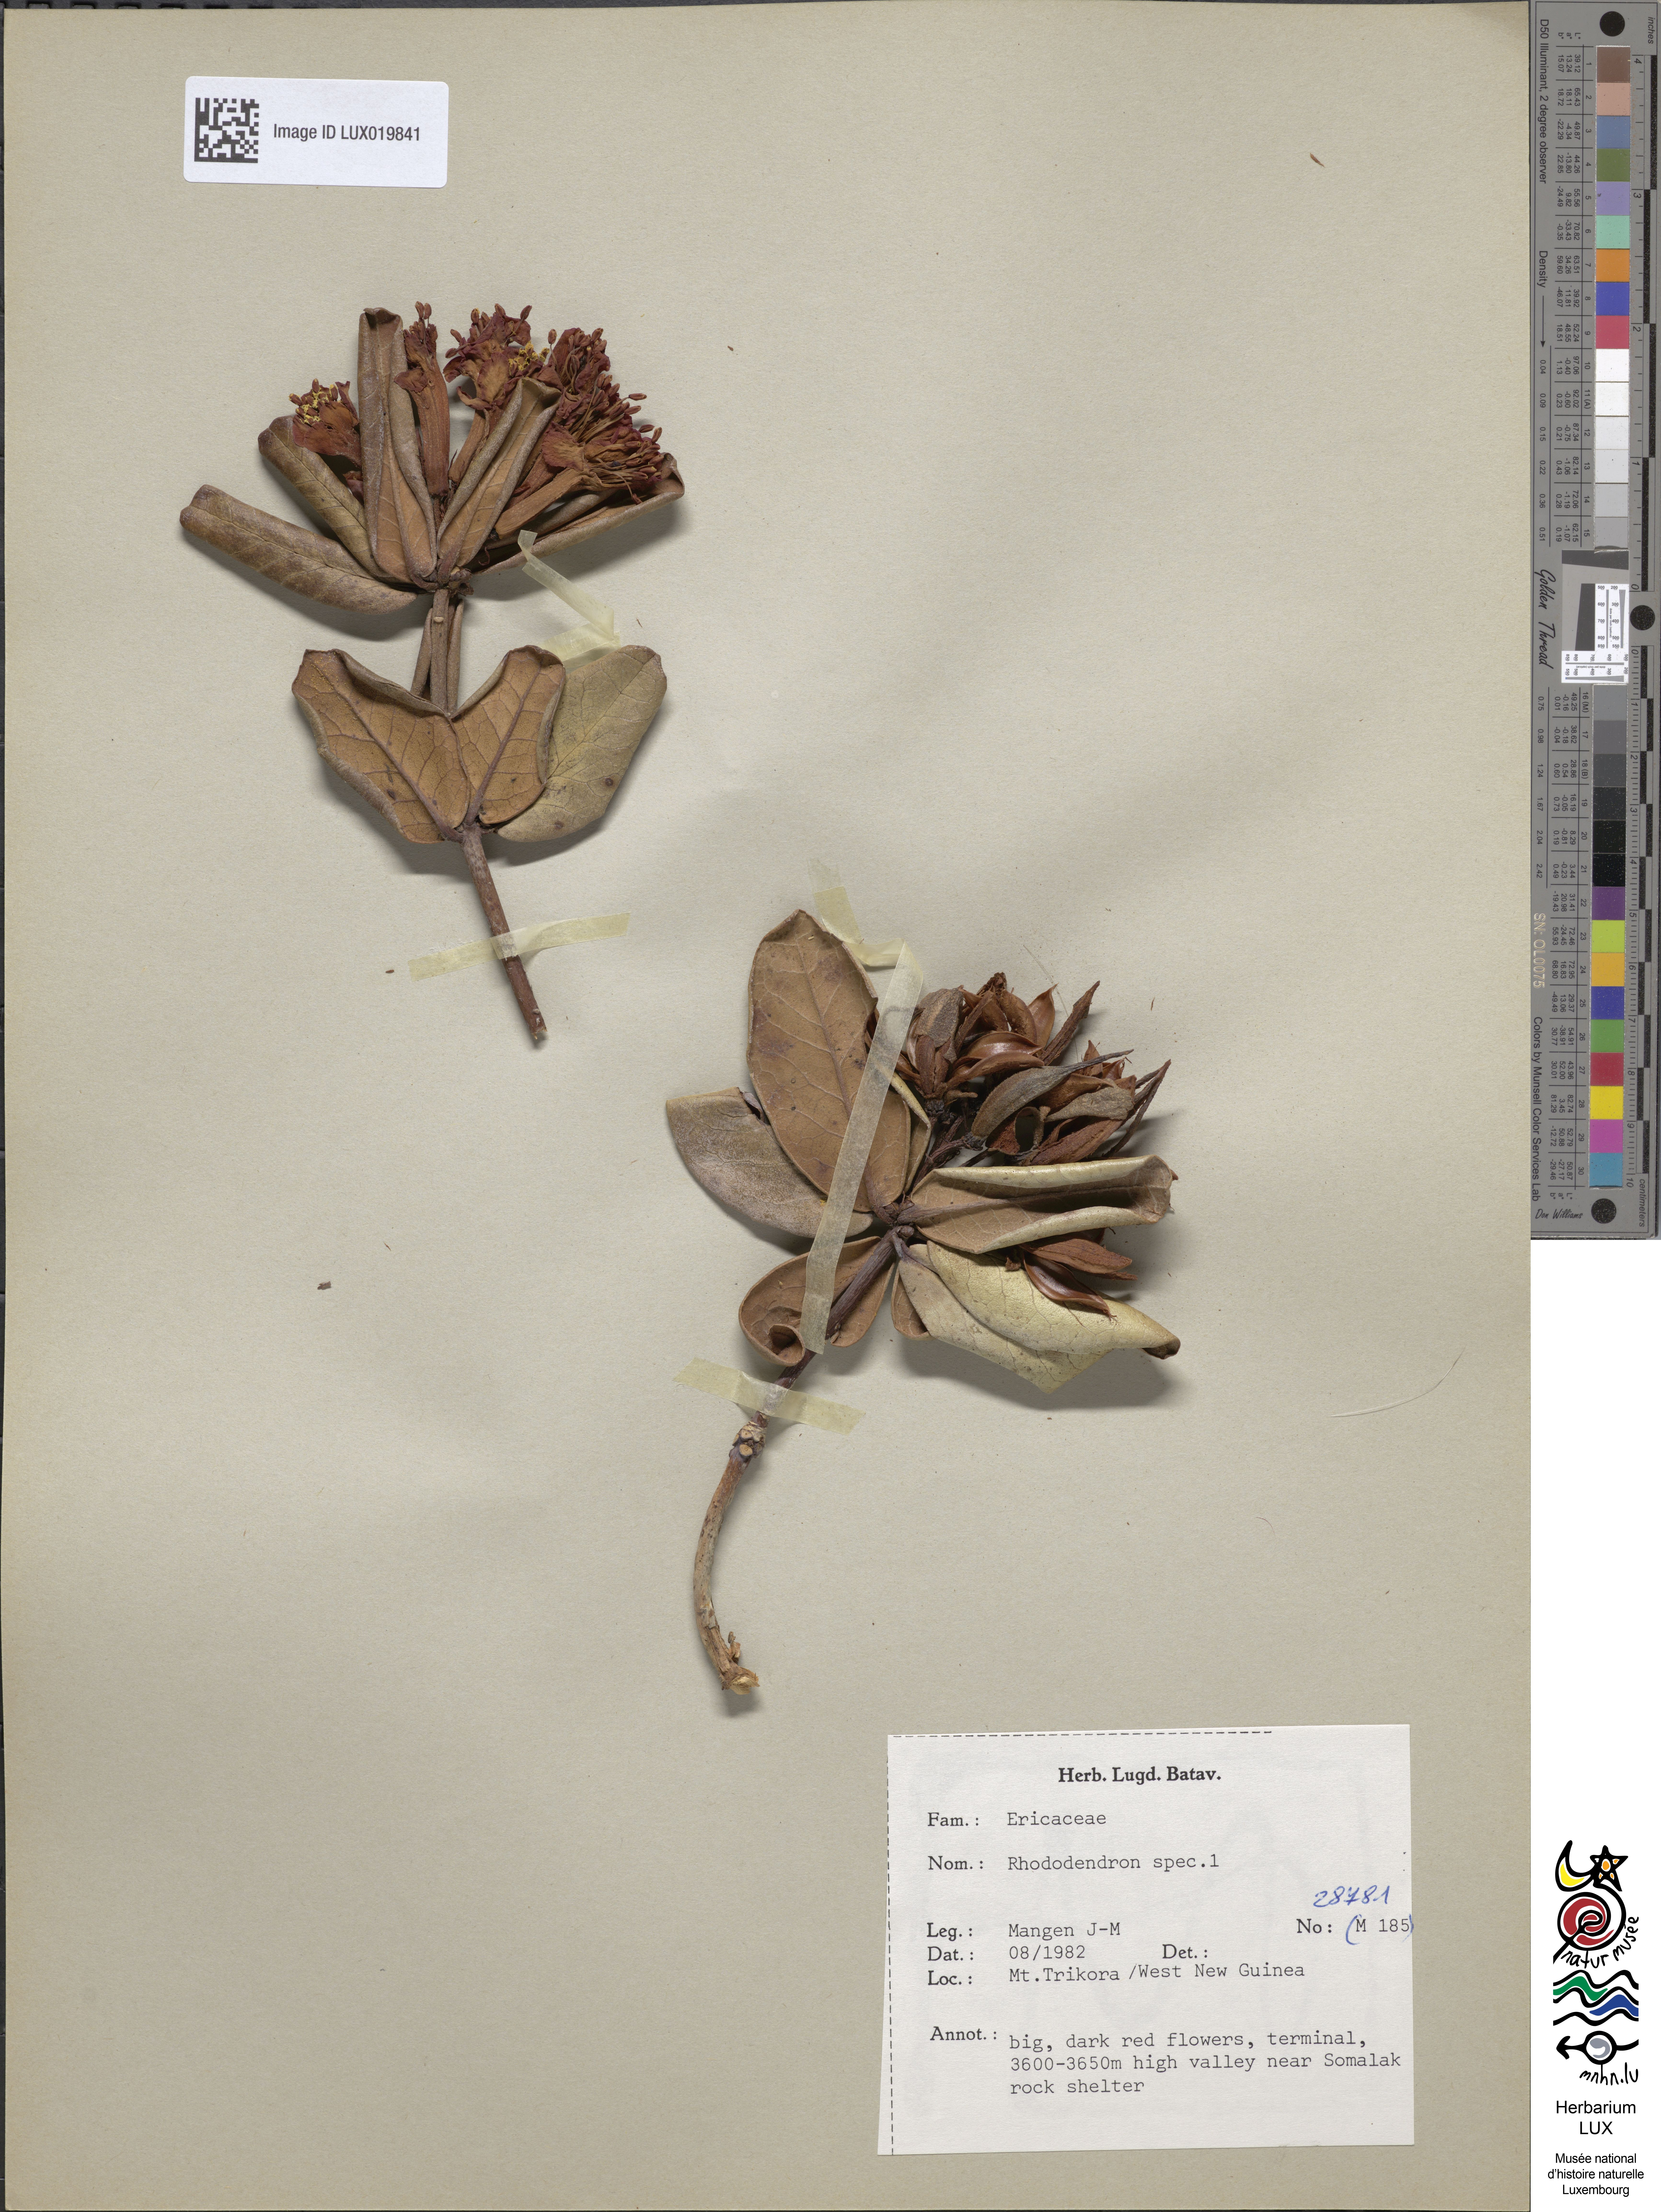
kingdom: Plantae
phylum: Tracheophyta
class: Magnoliopsida
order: Ericales
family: Ericaceae
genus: Rhododendron
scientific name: Rhododendron
